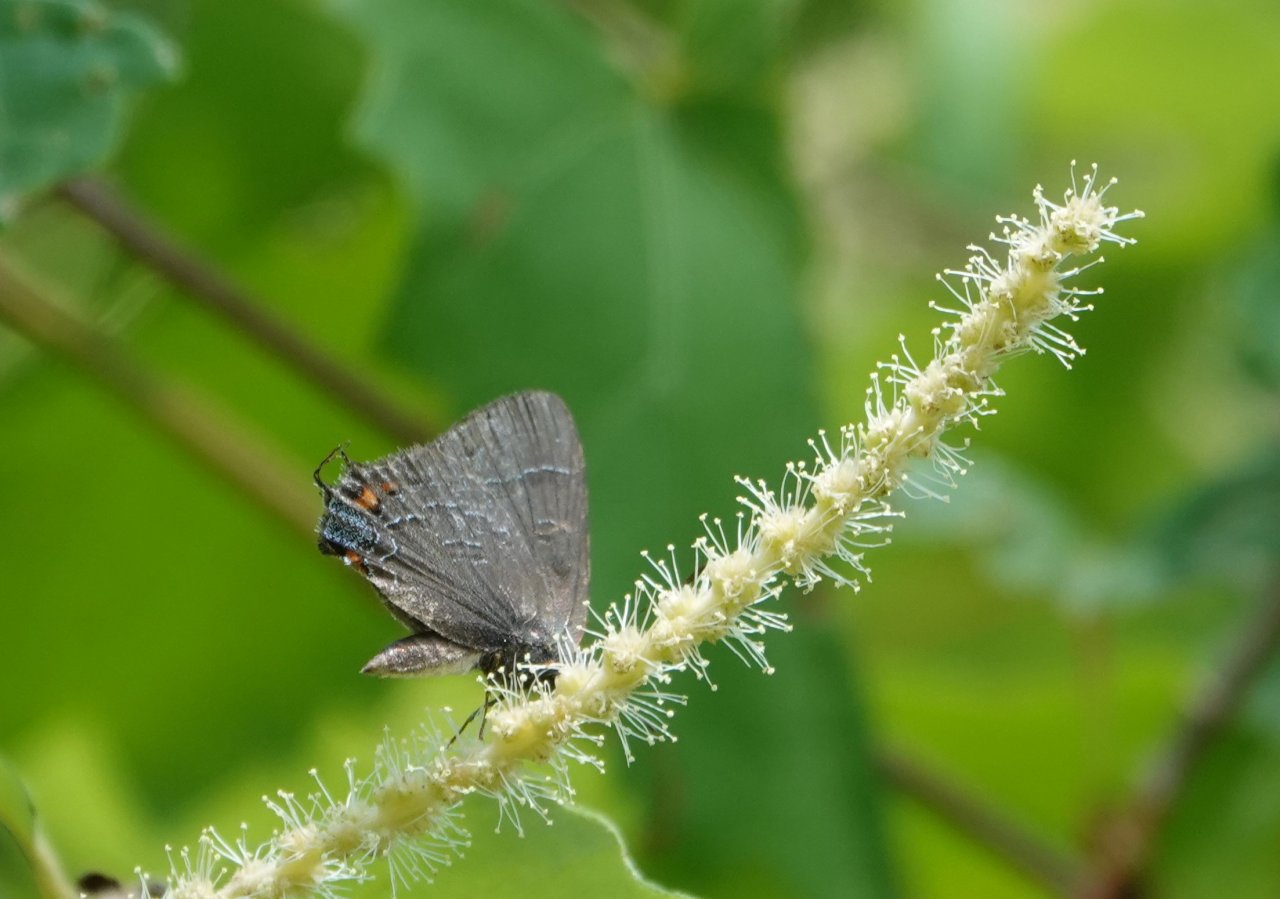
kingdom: Animalia
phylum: Arthropoda
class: Insecta
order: Lepidoptera
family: Lycaenidae
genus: Satyrium
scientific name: Satyrium calanus
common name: Banded Hairstreak
